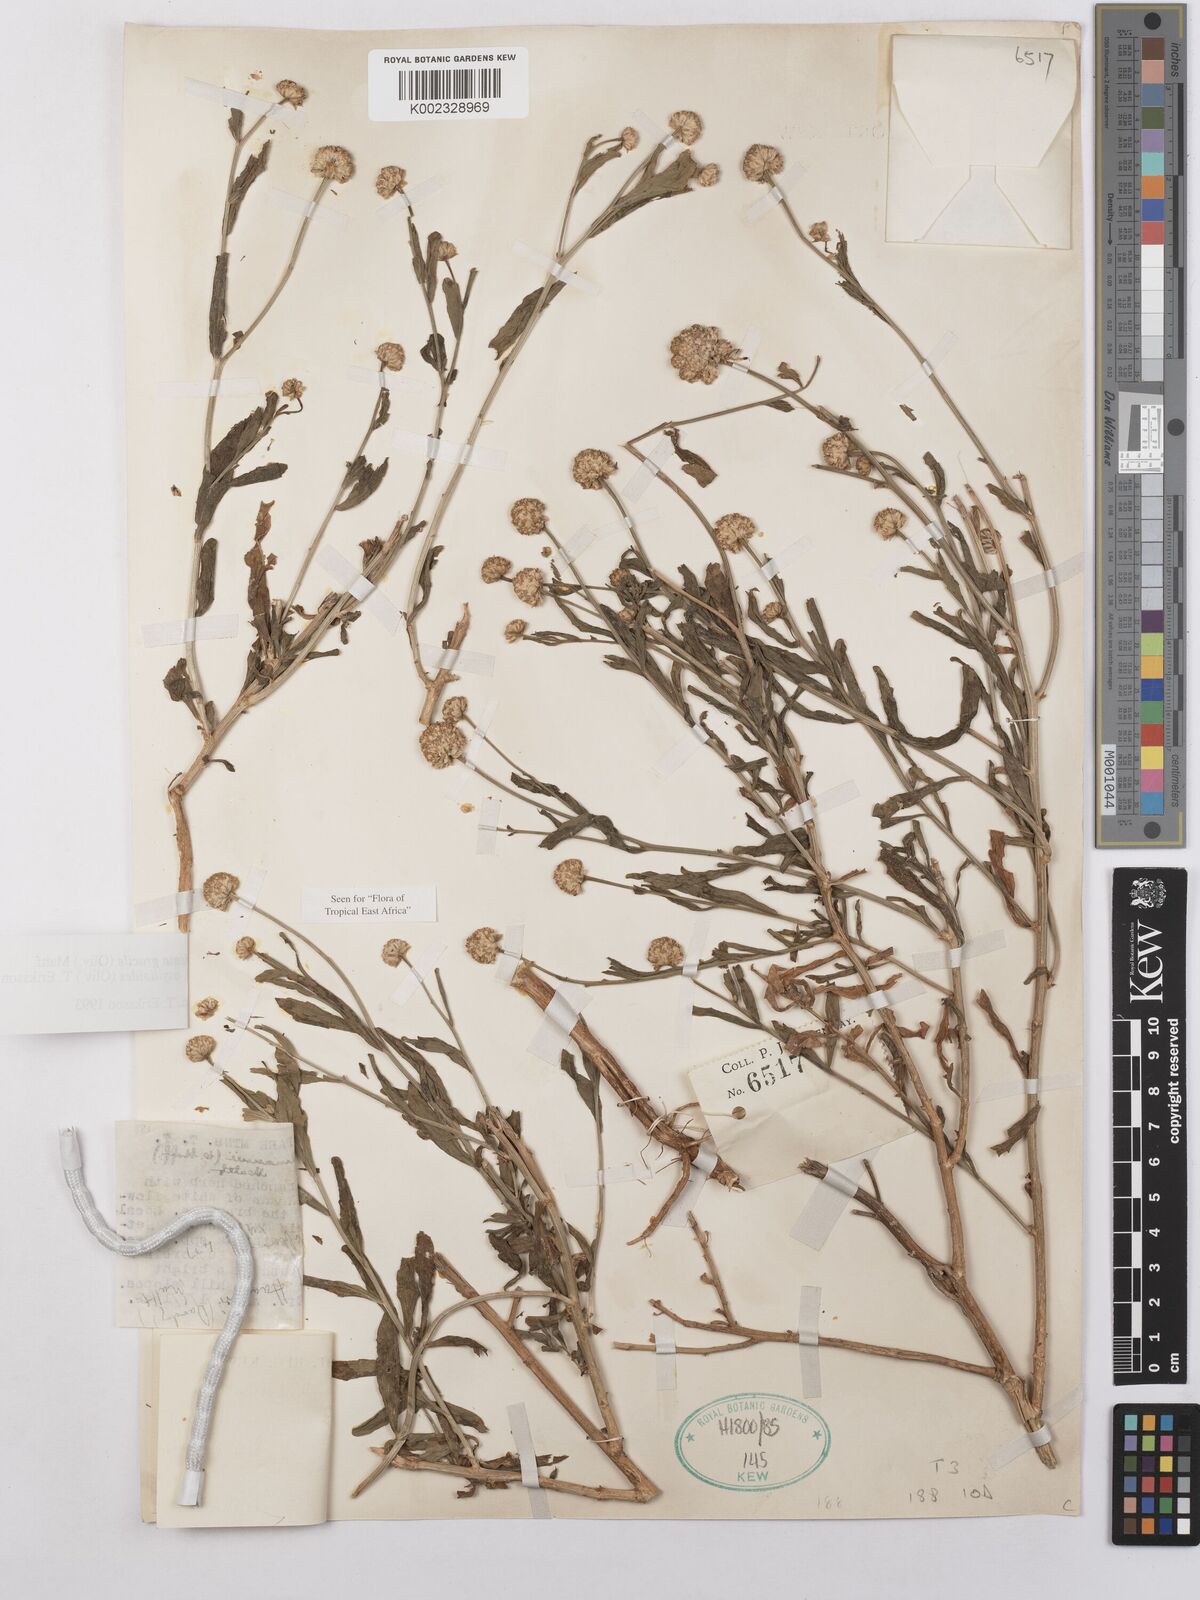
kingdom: Plantae
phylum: Tracheophyta
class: Magnoliopsida
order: Asterales
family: Asteraceae
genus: Athroisma
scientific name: Athroisma gracile
